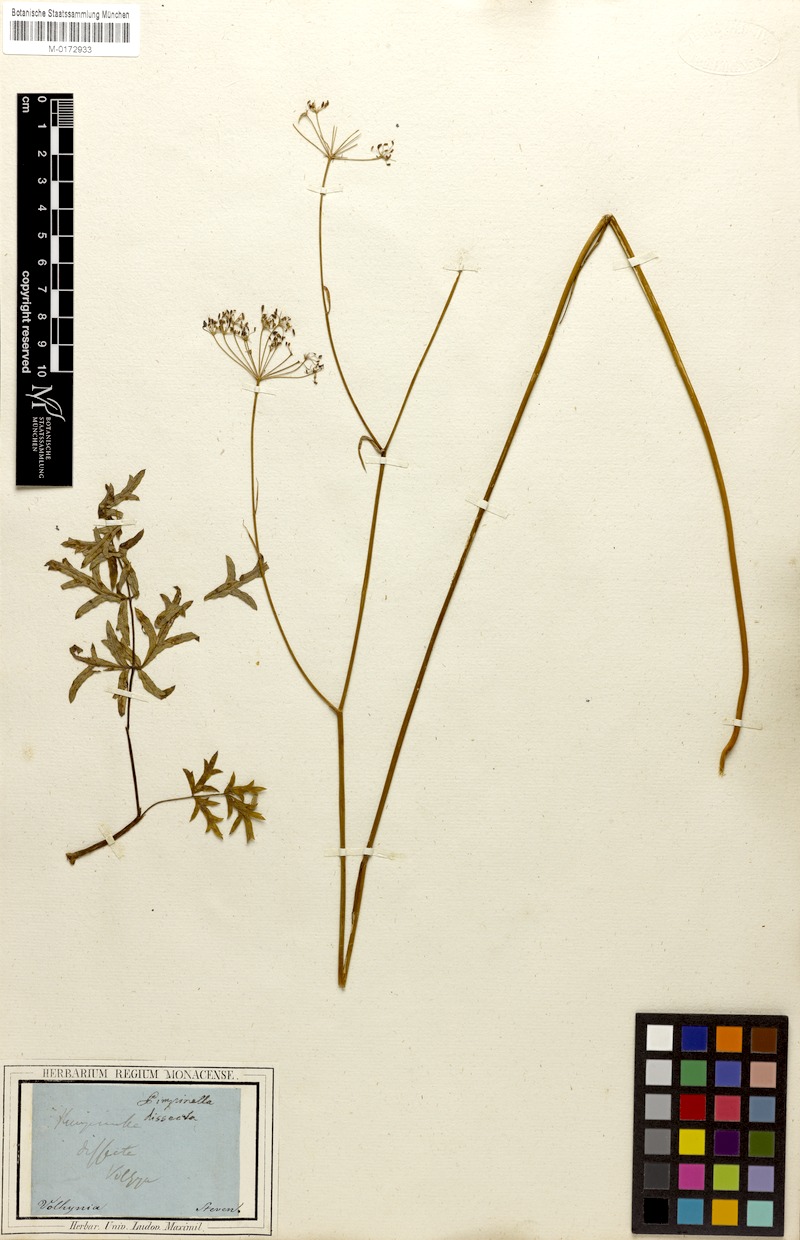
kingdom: Plantae
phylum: Tracheophyta
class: Magnoliopsida
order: Apiales
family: Apiaceae
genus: Pimpinella
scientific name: Pimpinella saxifraga
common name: Burnet-saxifrage
